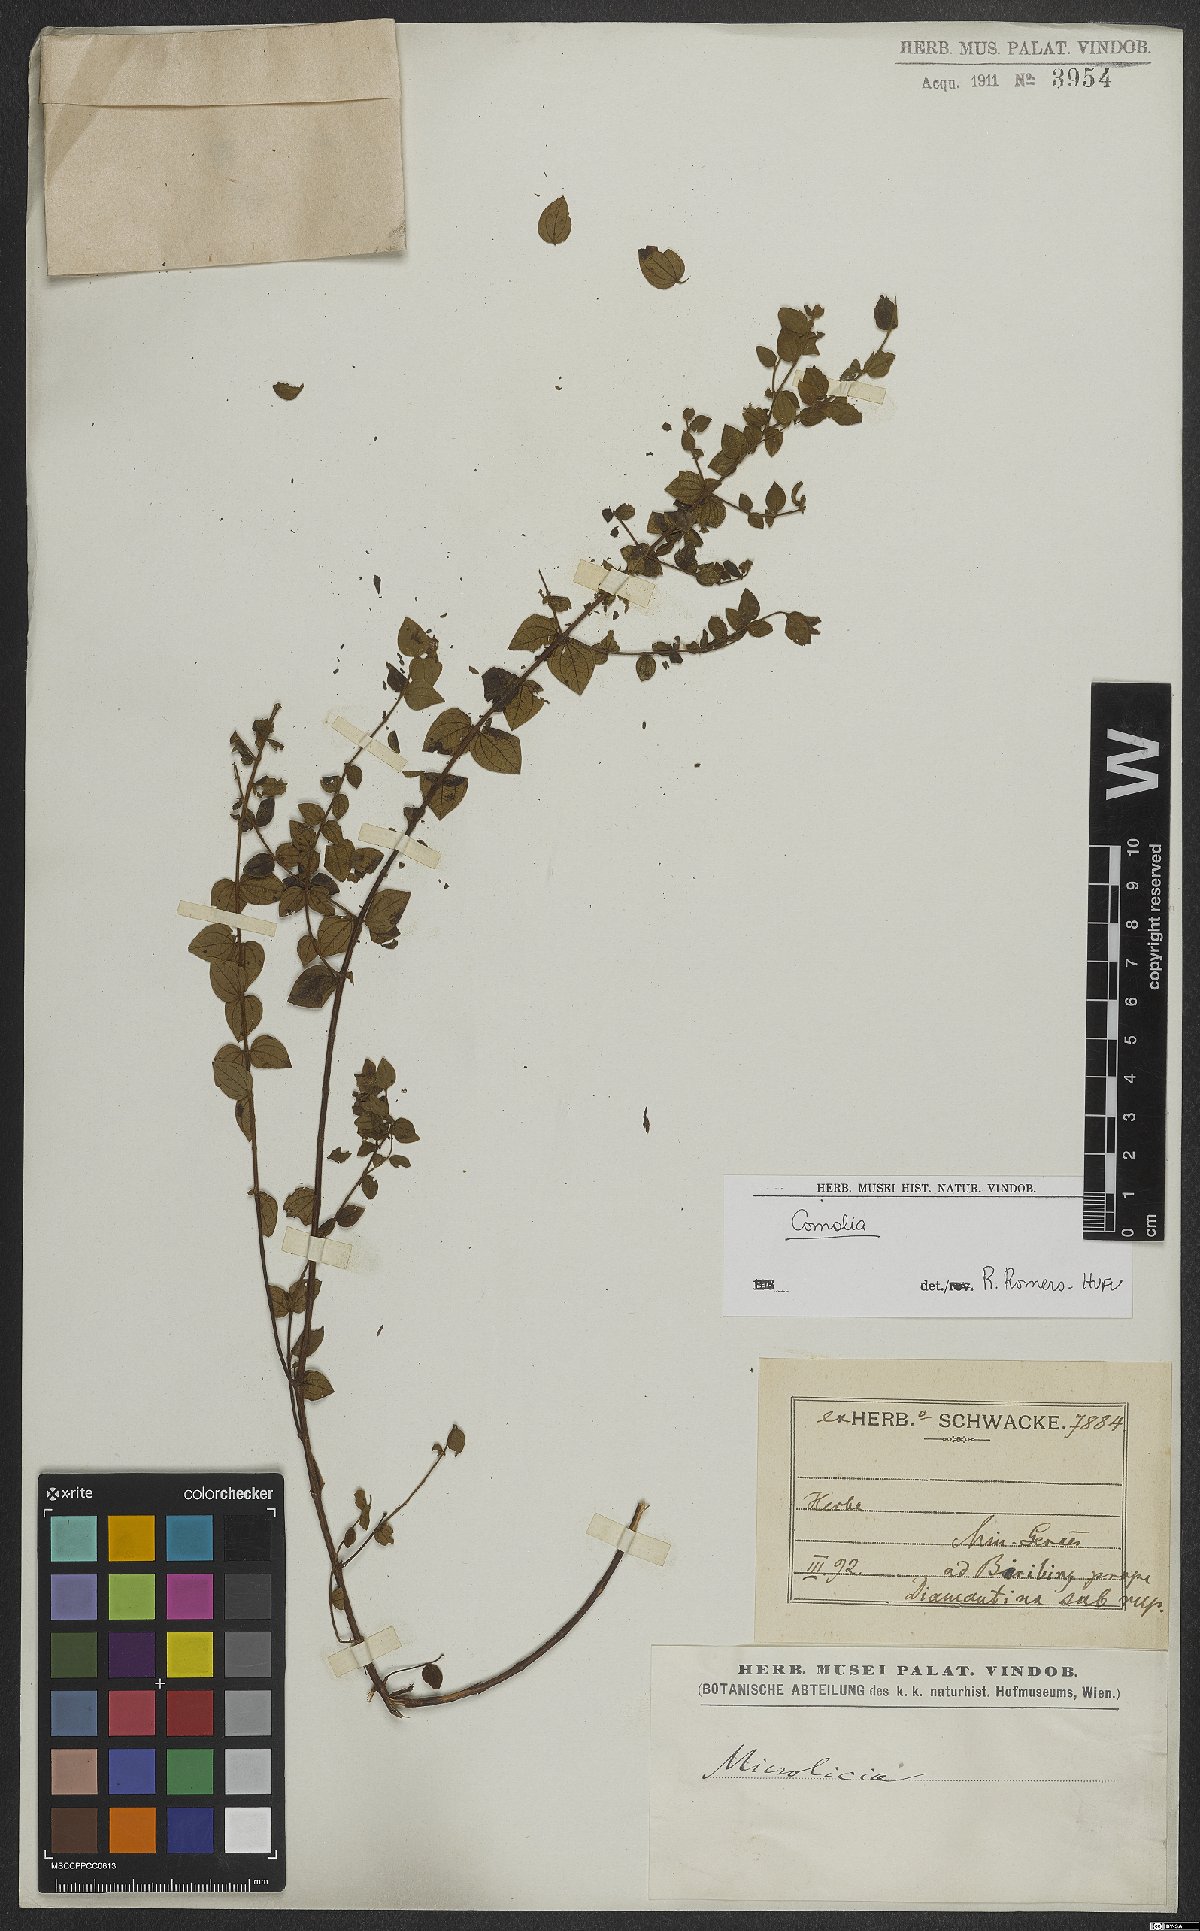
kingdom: Plantae
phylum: Tracheophyta
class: Magnoliopsida
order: Myrtales
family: Melastomataceae
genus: Comolia
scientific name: Comolia
